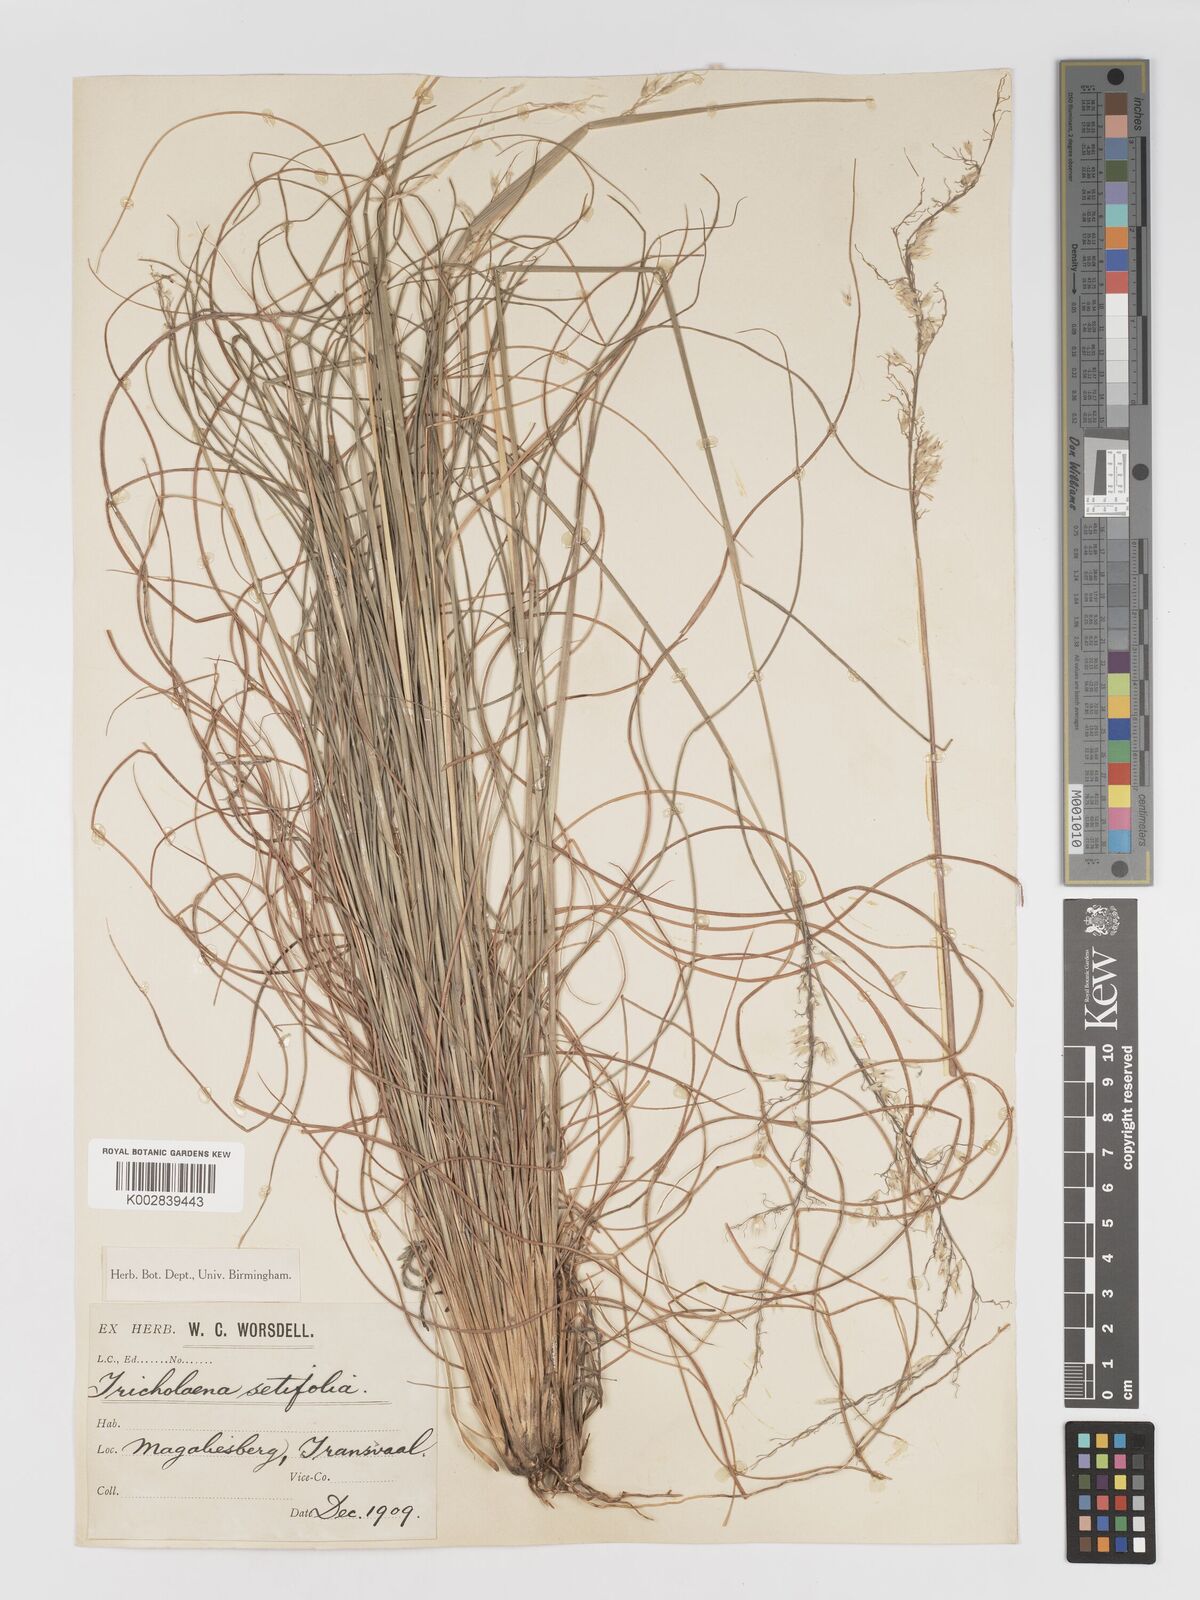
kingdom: Plantae
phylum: Tracheophyta
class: Liliopsida
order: Poales
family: Poaceae
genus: Melinis
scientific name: Melinis nerviglumis
